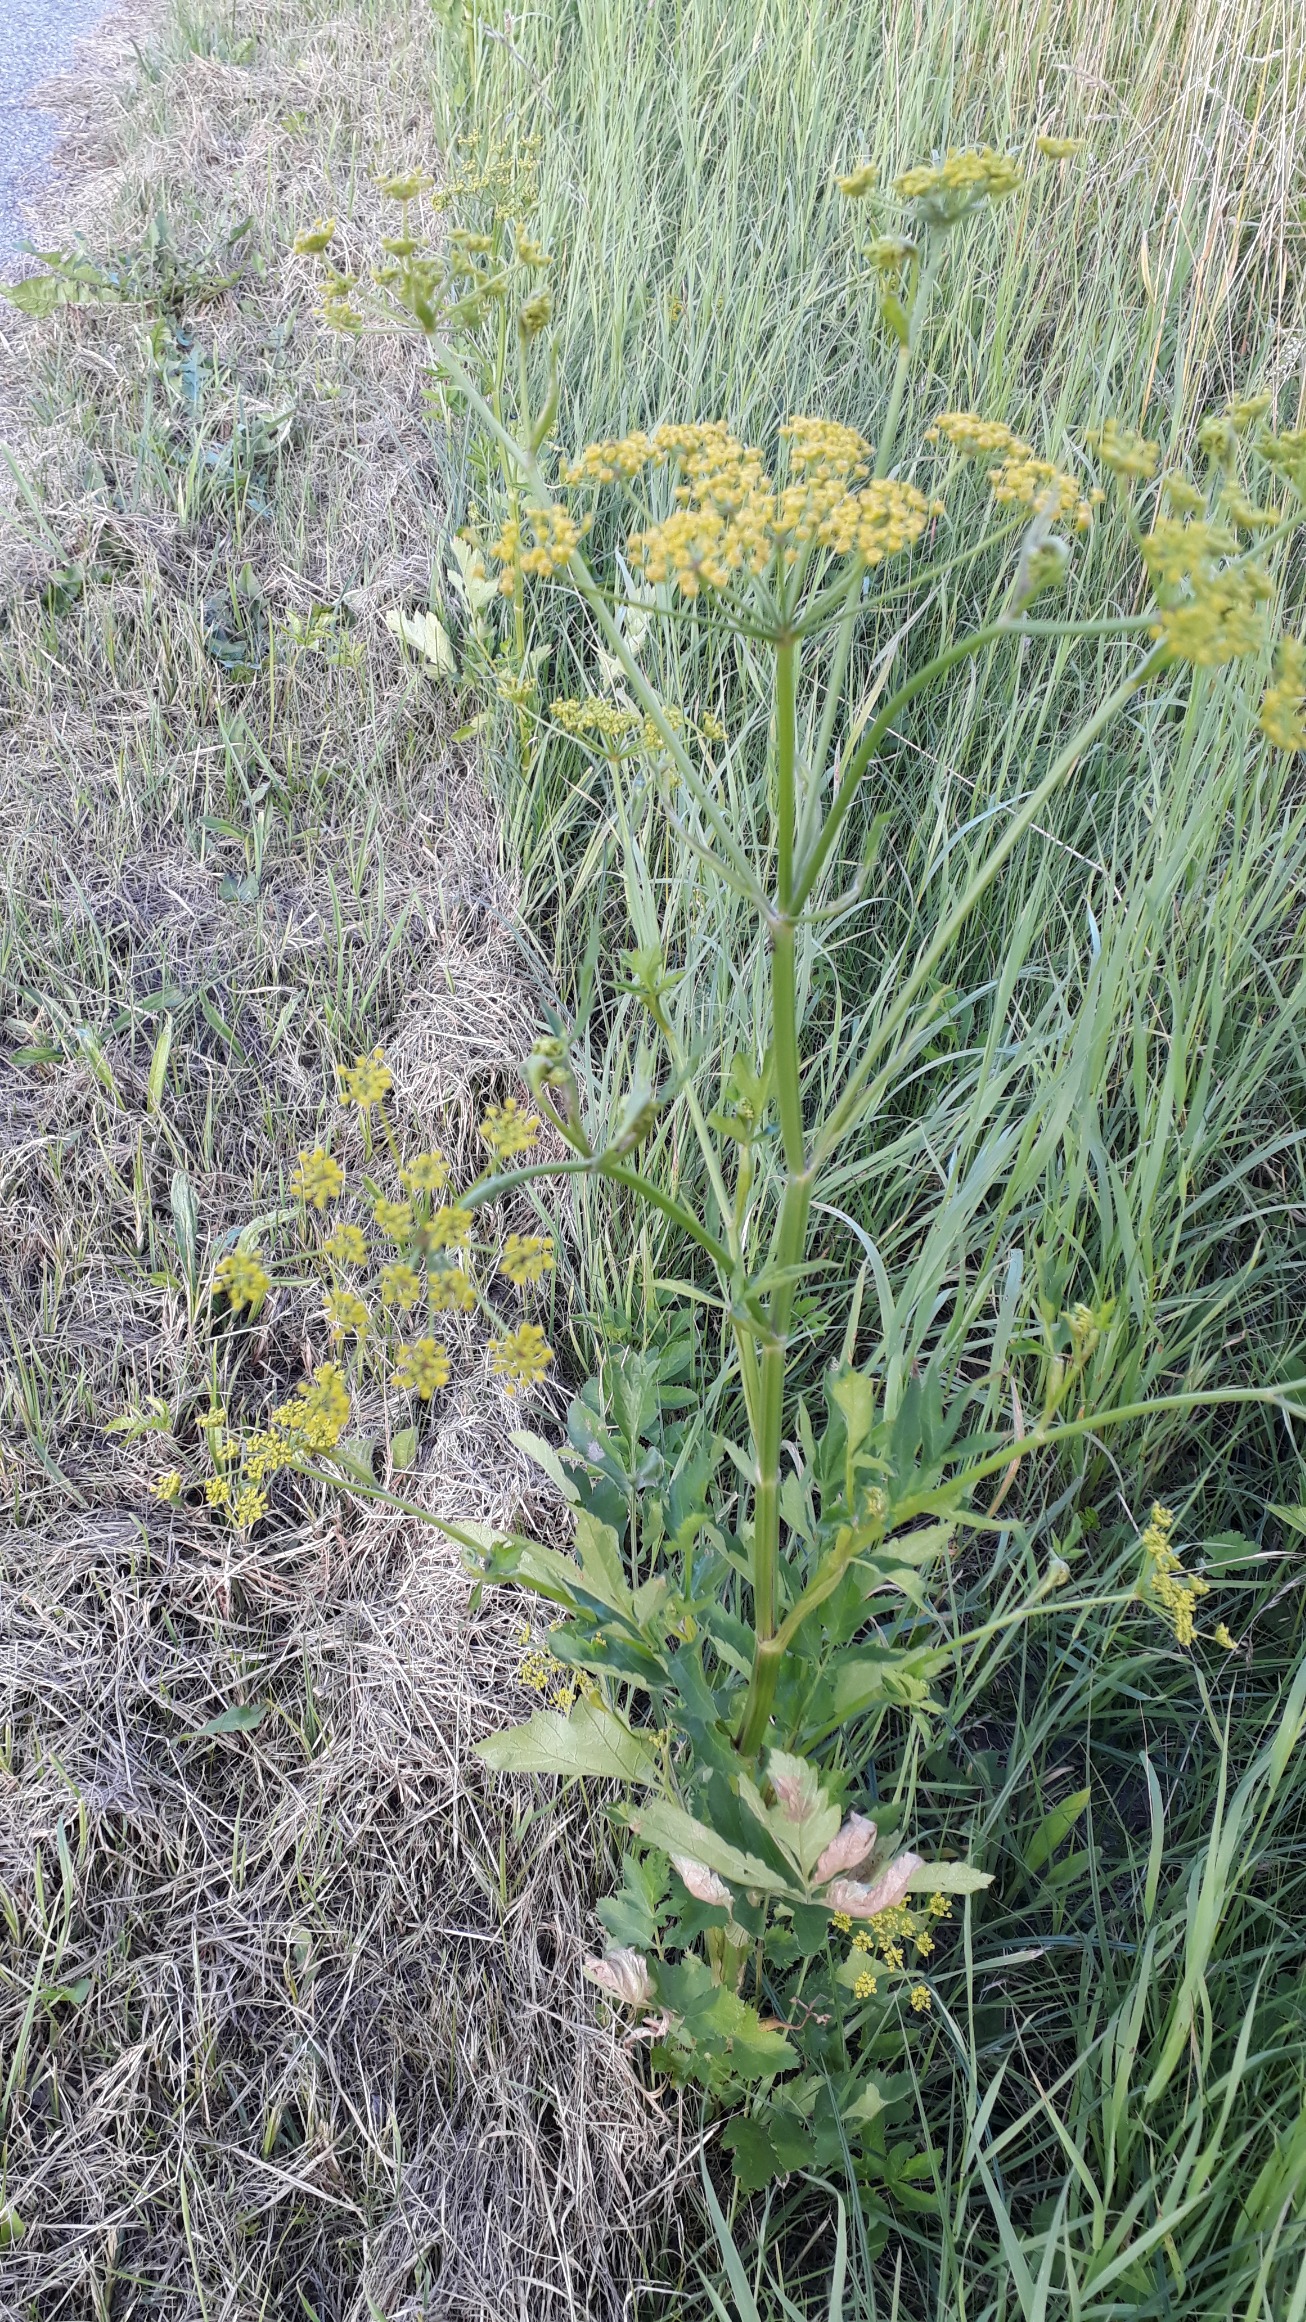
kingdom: Plantae
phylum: Tracheophyta
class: Magnoliopsida
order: Apiales
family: Apiaceae
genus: Pastinaca
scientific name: Pastinaca sativa
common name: Pastinak
